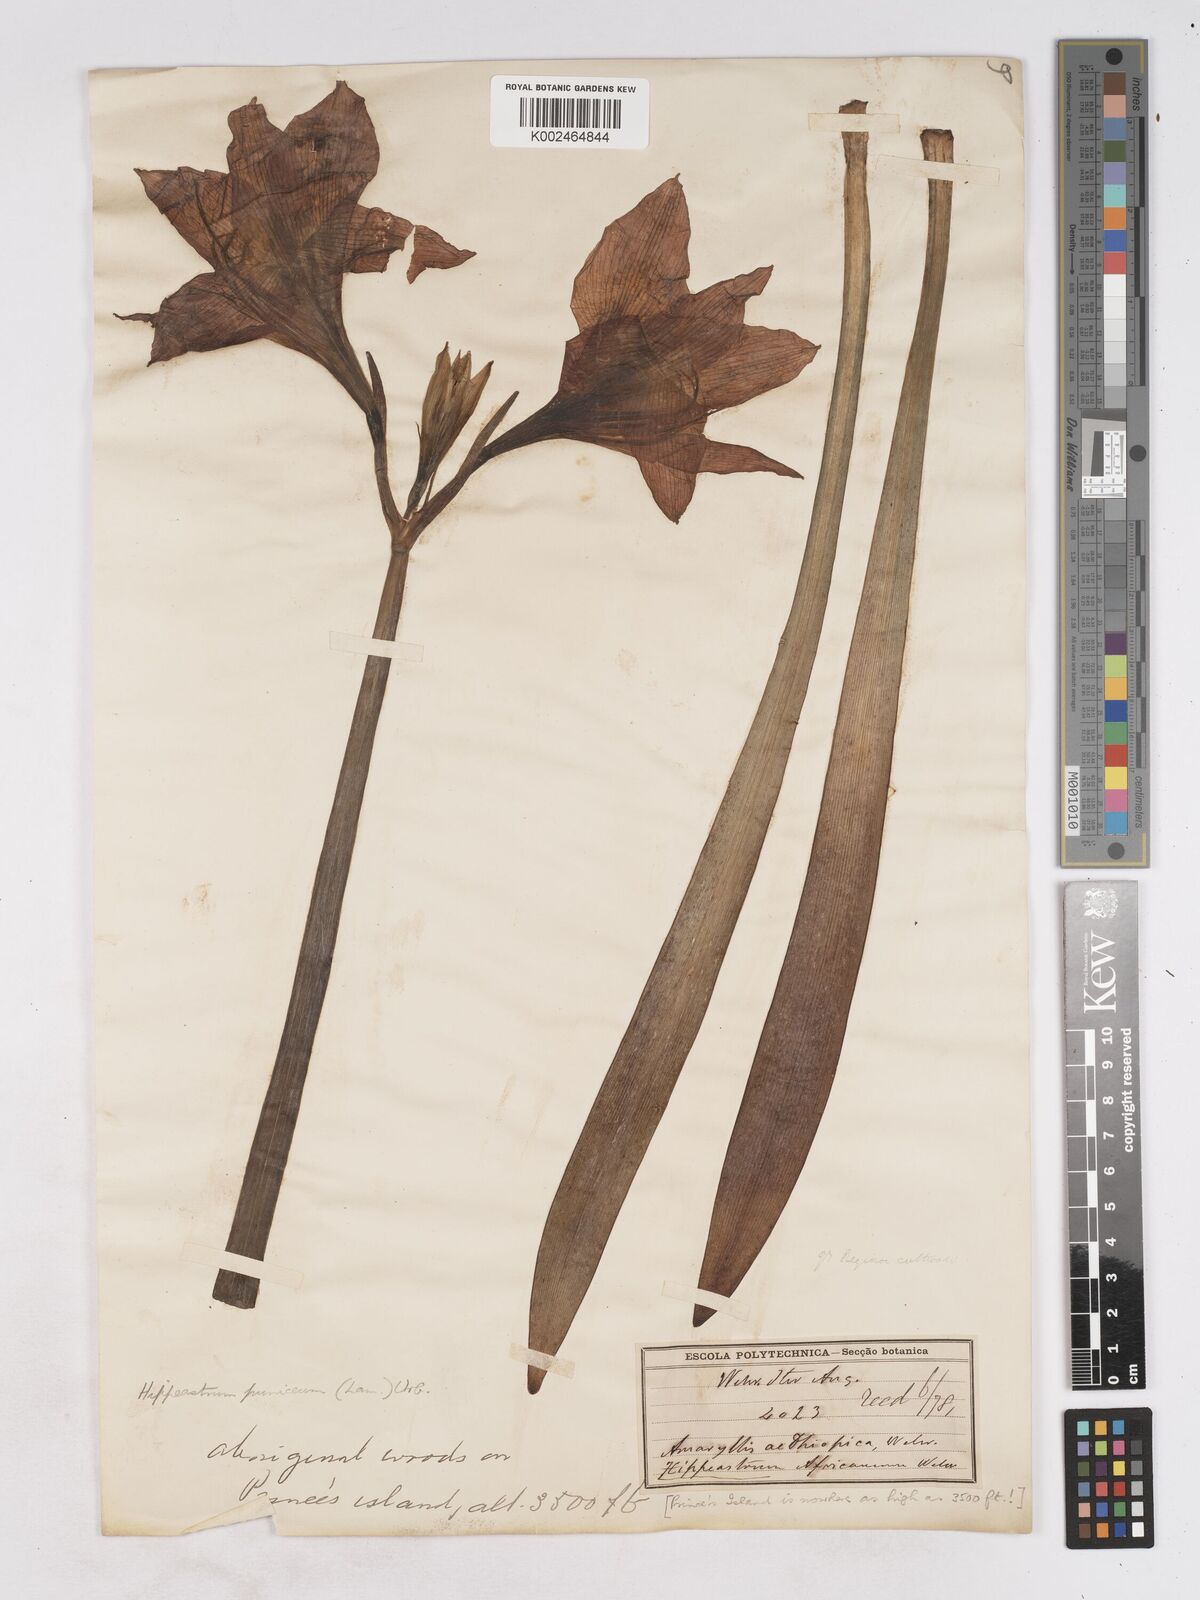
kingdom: Plantae
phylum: Tracheophyta
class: Liliopsida
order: Asparagales
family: Amaryllidaceae
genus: Hippeastrum
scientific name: Hippeastrum puniceum
